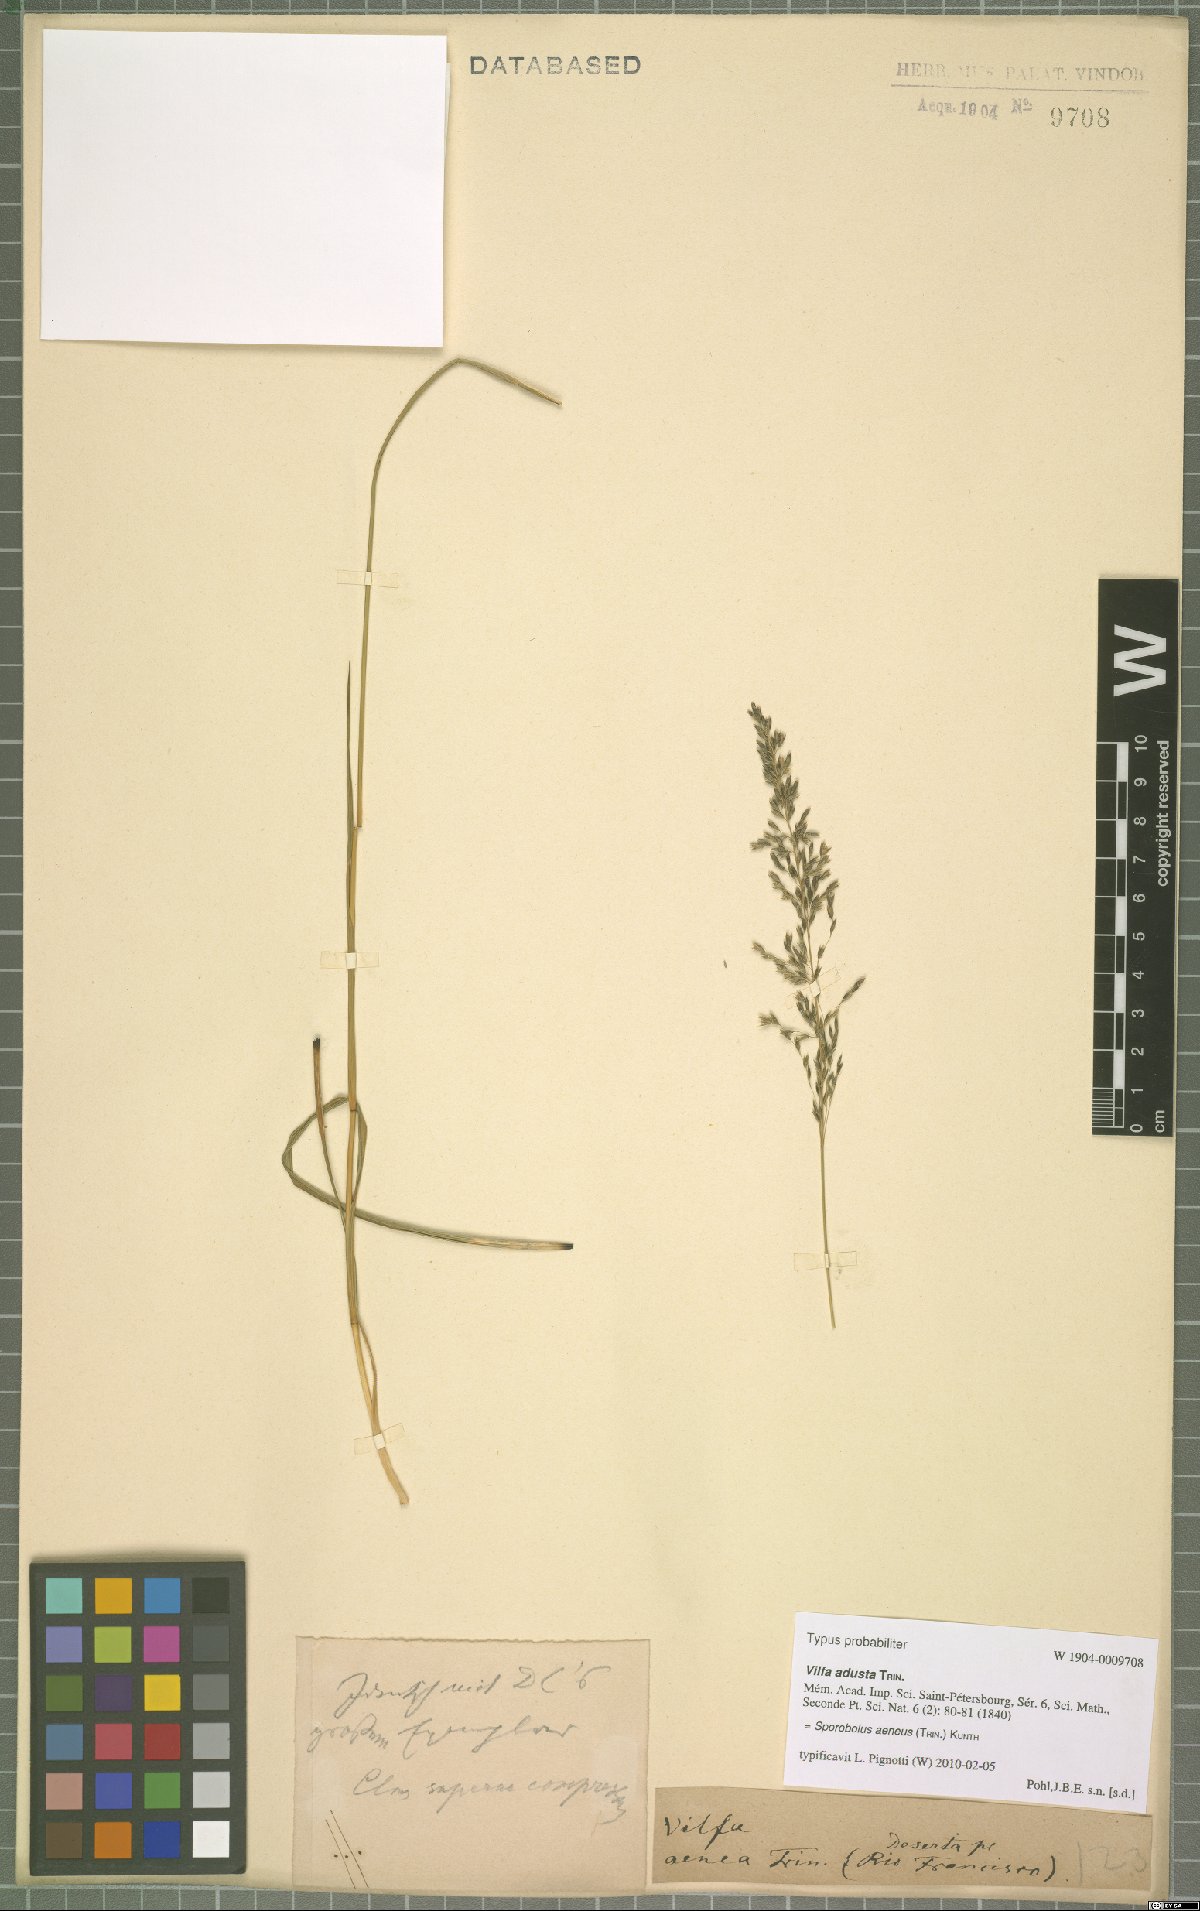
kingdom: Plantae
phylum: Tracheophyta
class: Liliopsida
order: Poales
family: Poaceae
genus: Sporobolus
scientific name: Sporobolus aeneus
